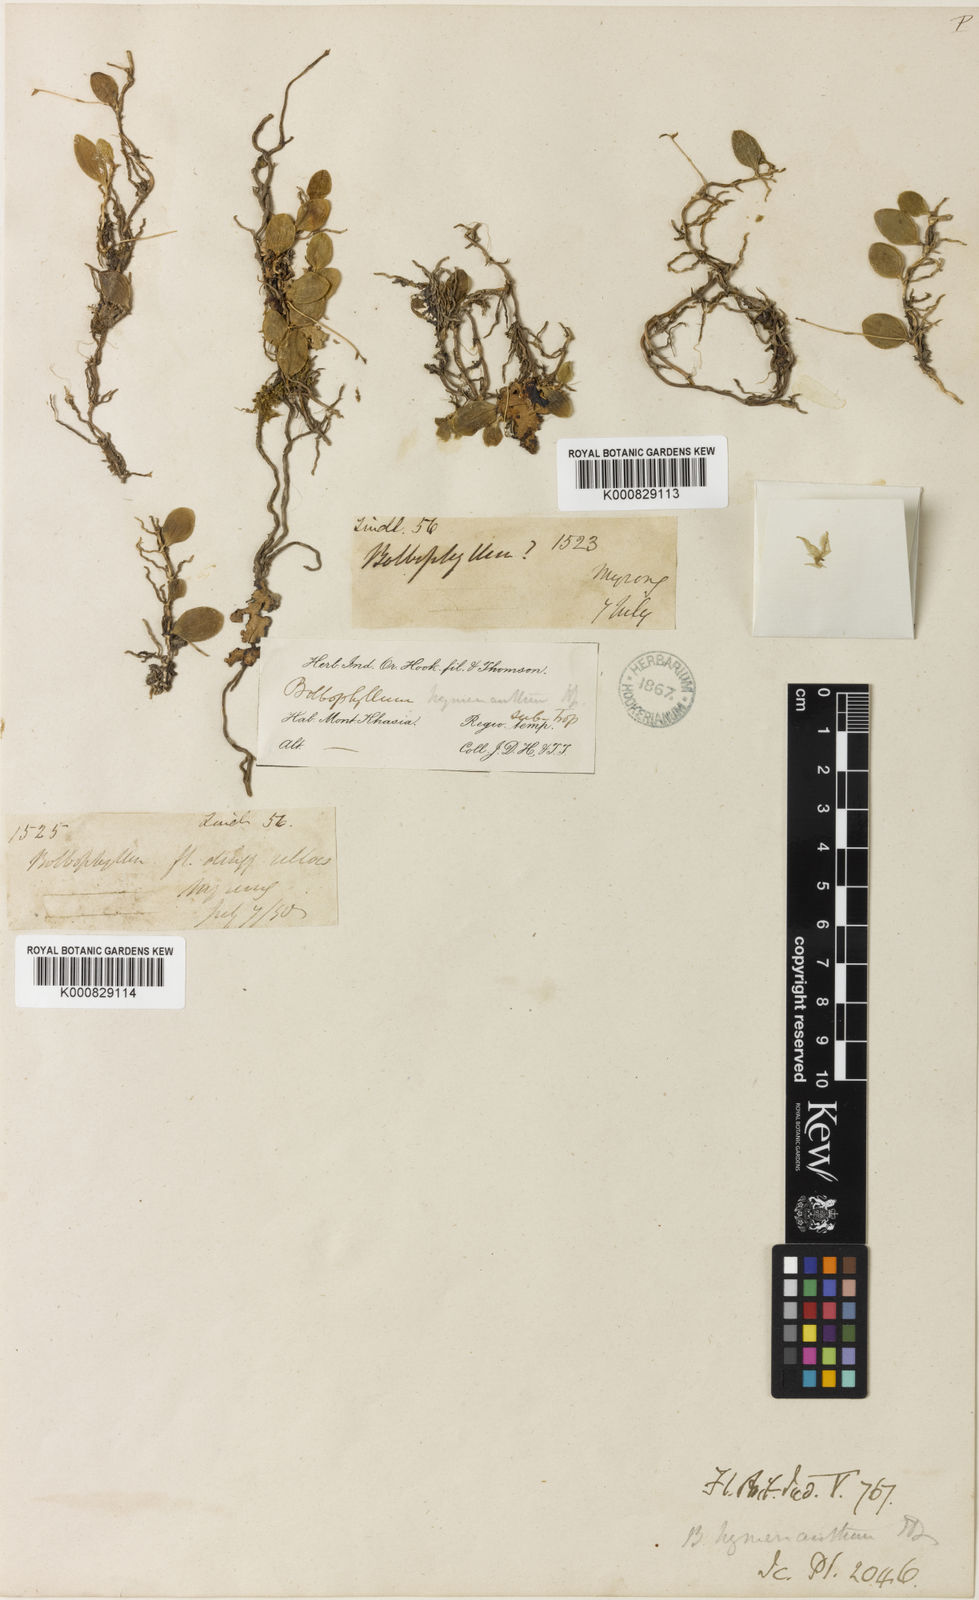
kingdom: Plantae
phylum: Tracheophyta
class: Liliopsida
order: Asparagales
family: Orchidaceae
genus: Bulbophyllum
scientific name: Bulbophyllum hymenanthum
